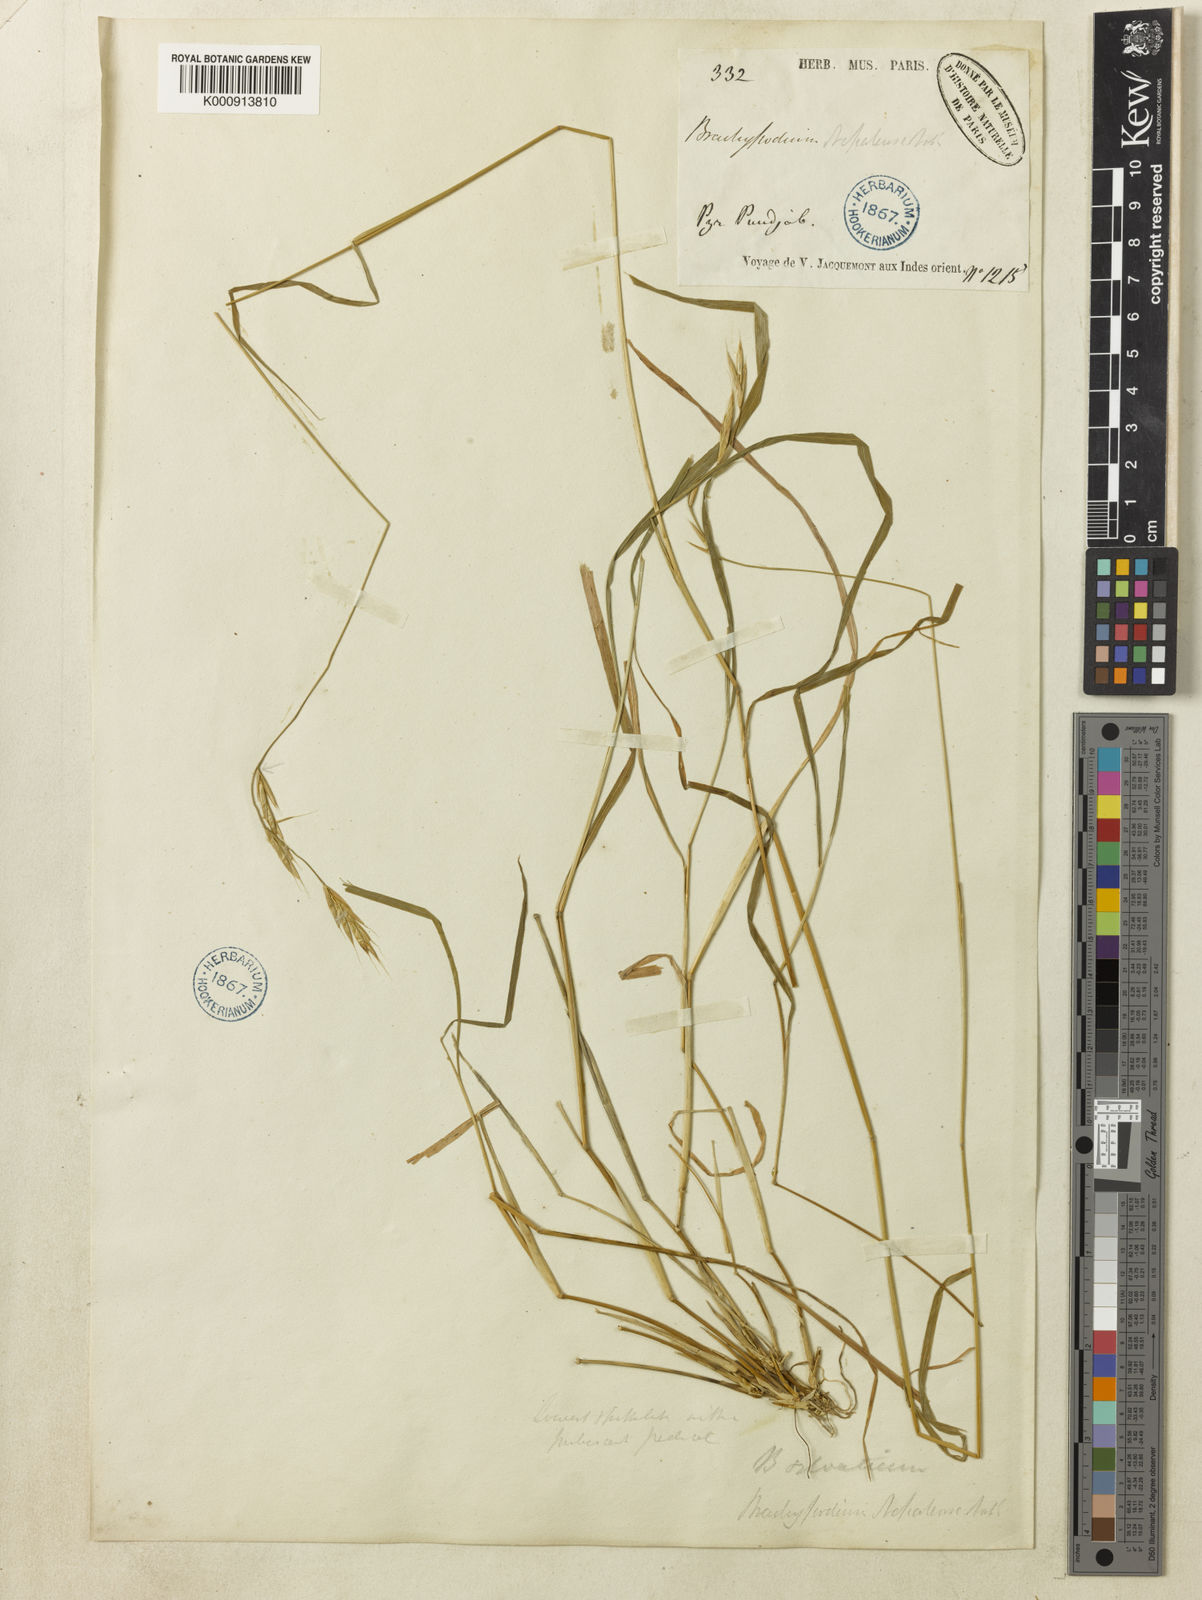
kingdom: Plantae
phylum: Tracheophyta
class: Liliopsida
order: Poales
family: Poaceae
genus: Brachypodium
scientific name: Brachypodium sylvaticum
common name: False-brome
